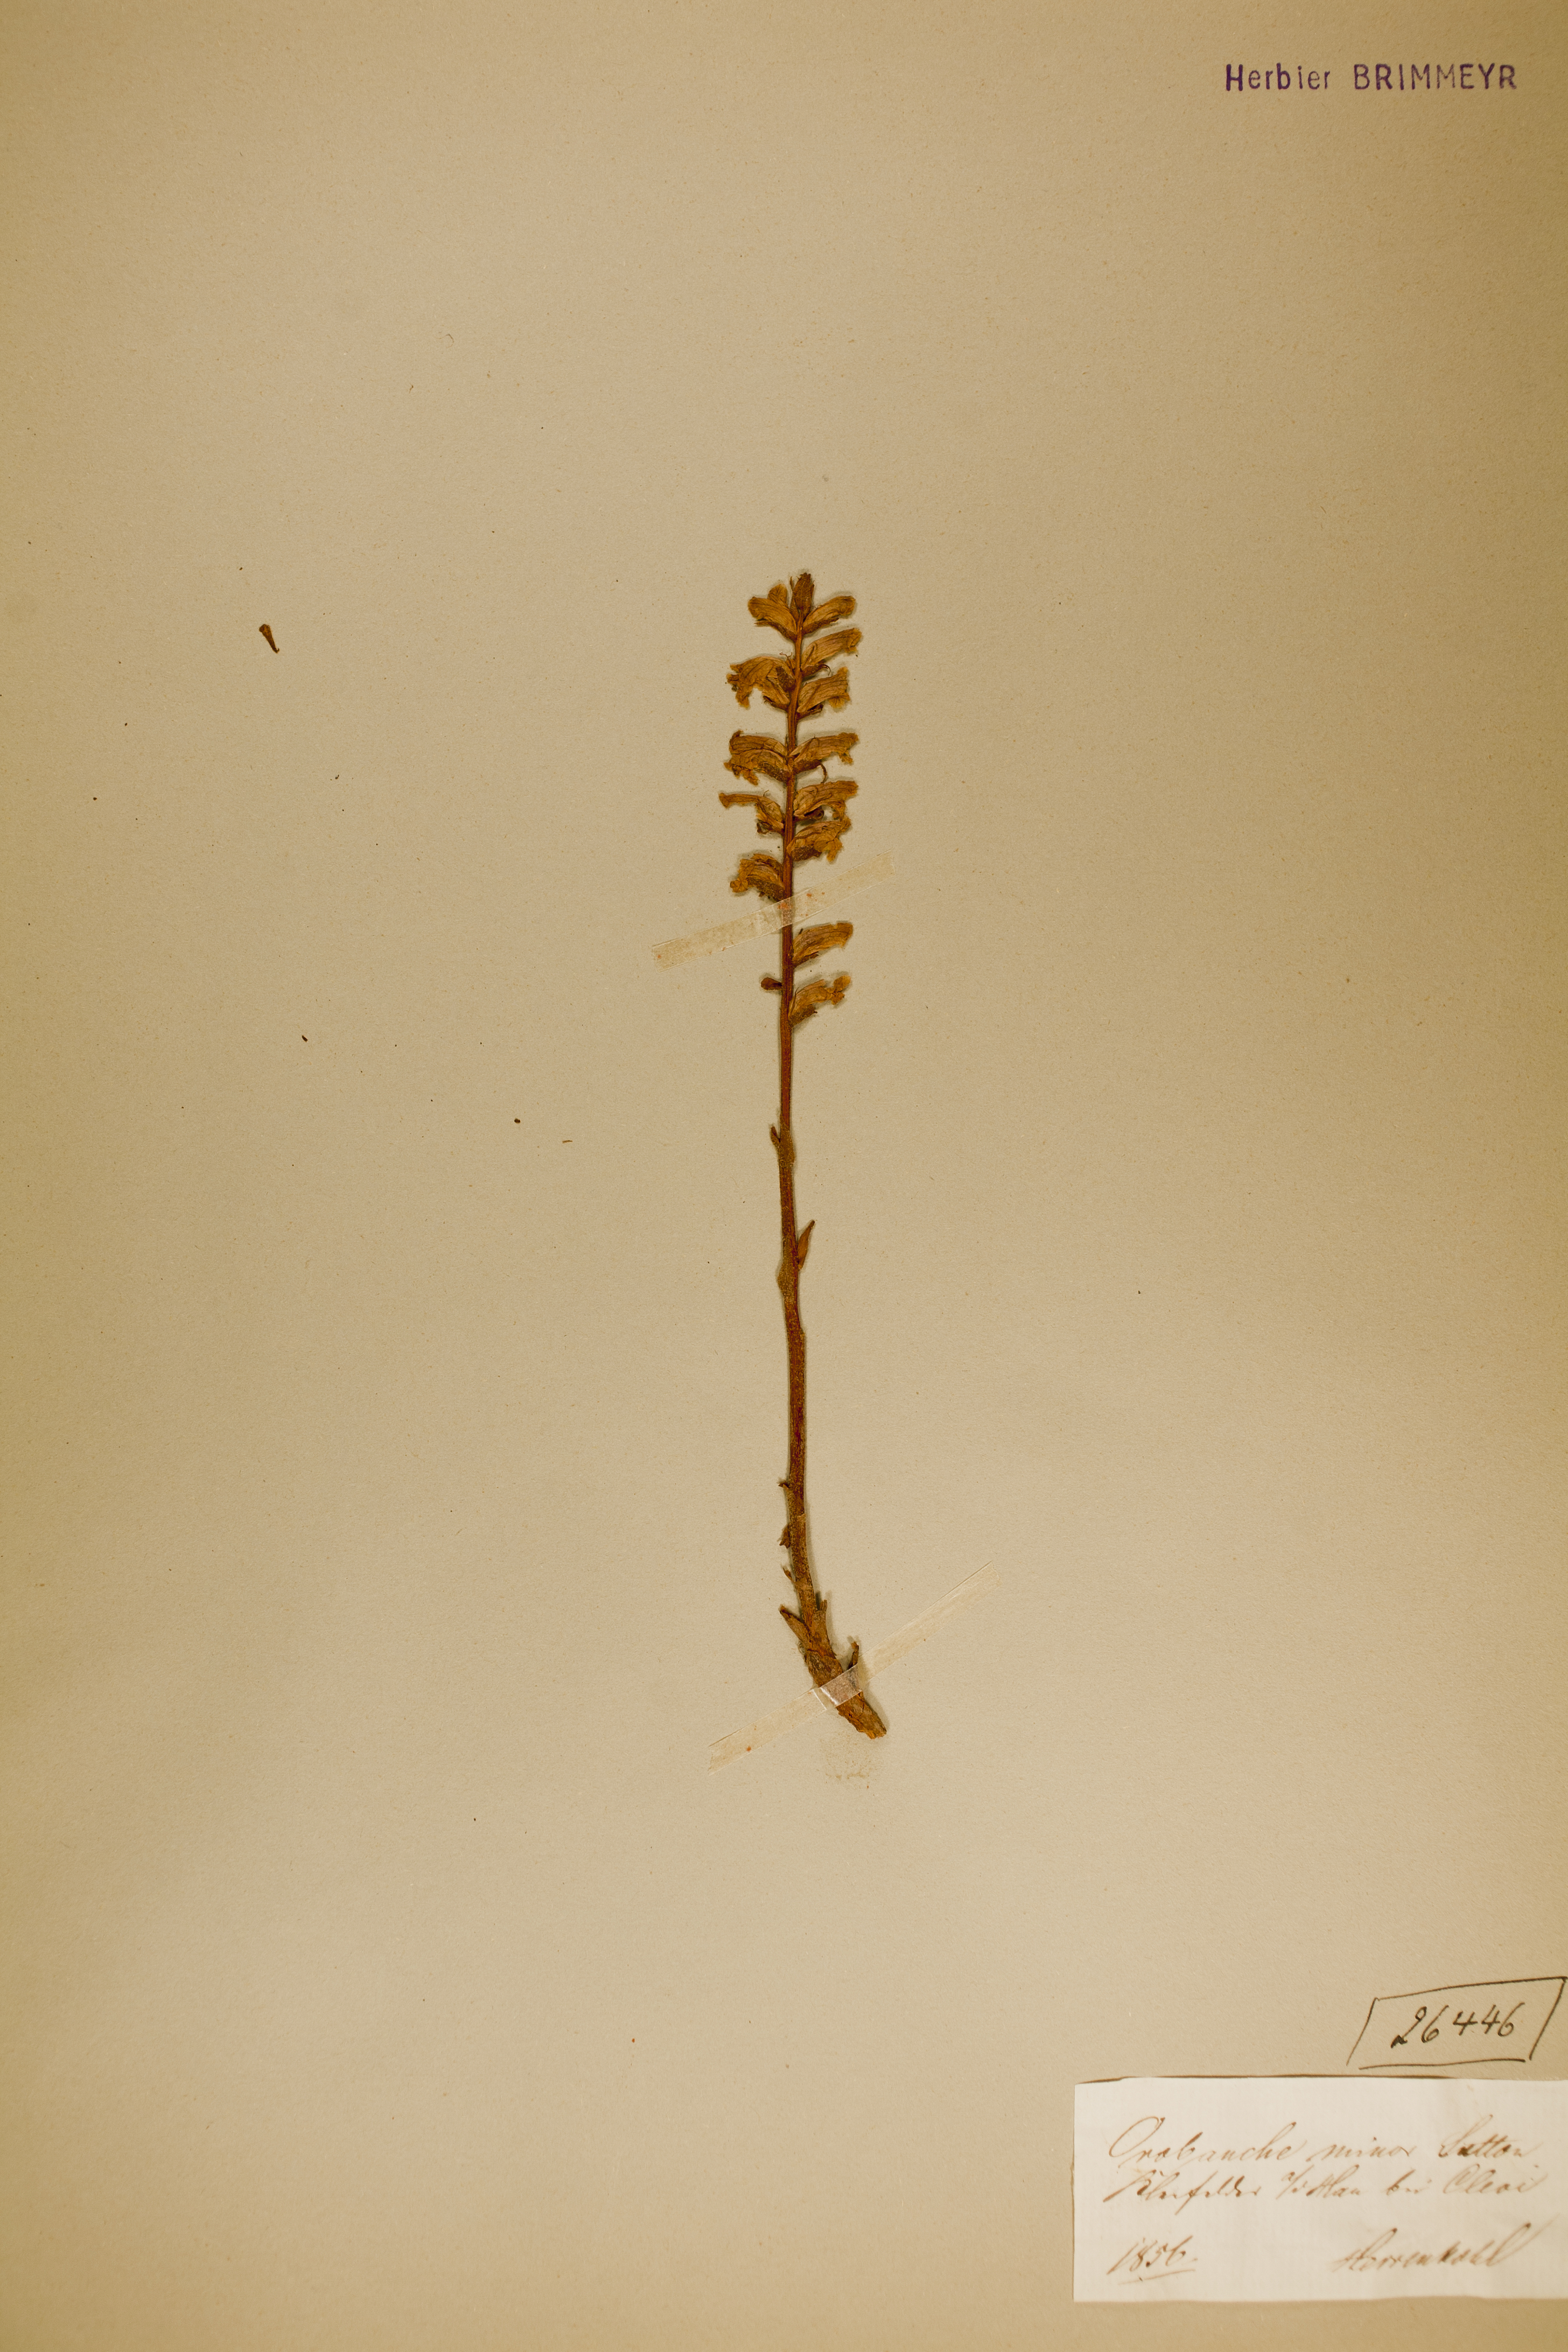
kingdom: Plantae
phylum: Tracheophyta
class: Magnoliopsida
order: Lamiales
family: Orobanchaceae
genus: Orobanche
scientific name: Orobanche minor
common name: Common broomrape
